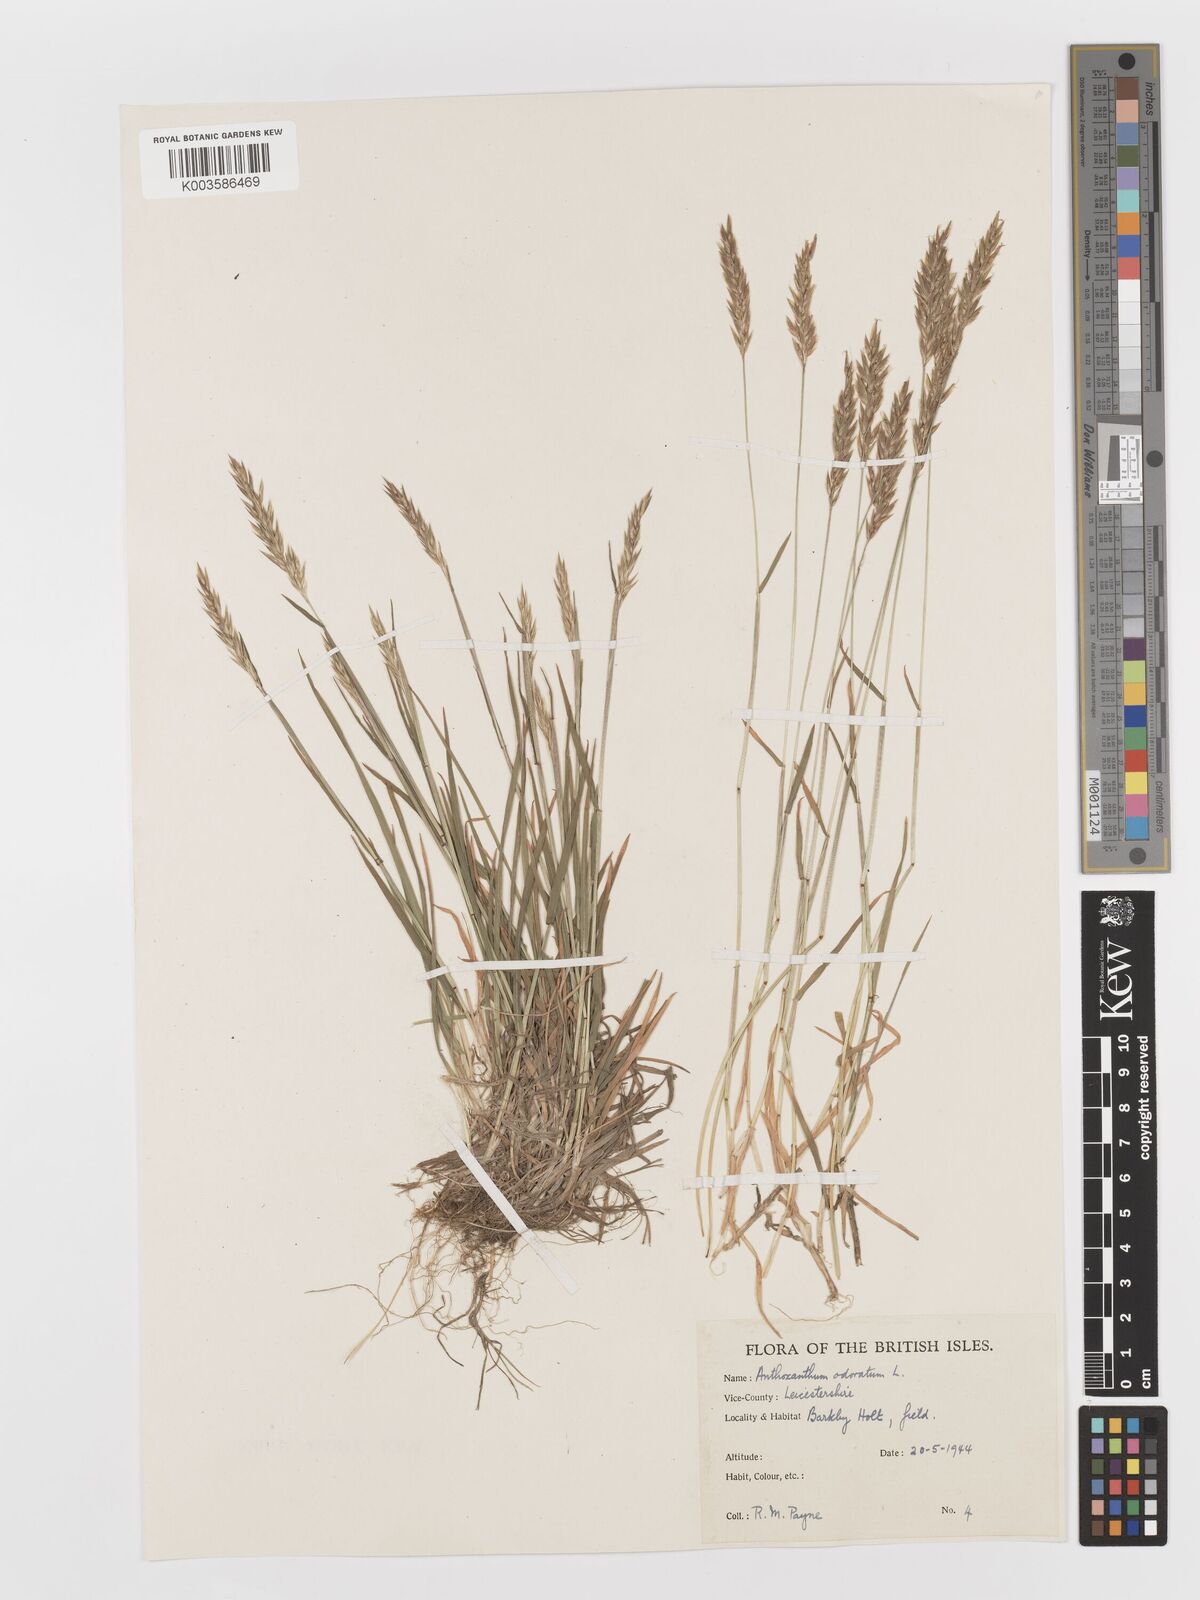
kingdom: Plantae
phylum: Tracheophyta
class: Liliopsida
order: Poales
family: Poaceae
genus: Anthoxanthum
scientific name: Anthoxanthum odoratum
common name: Sweet vernalgrass
